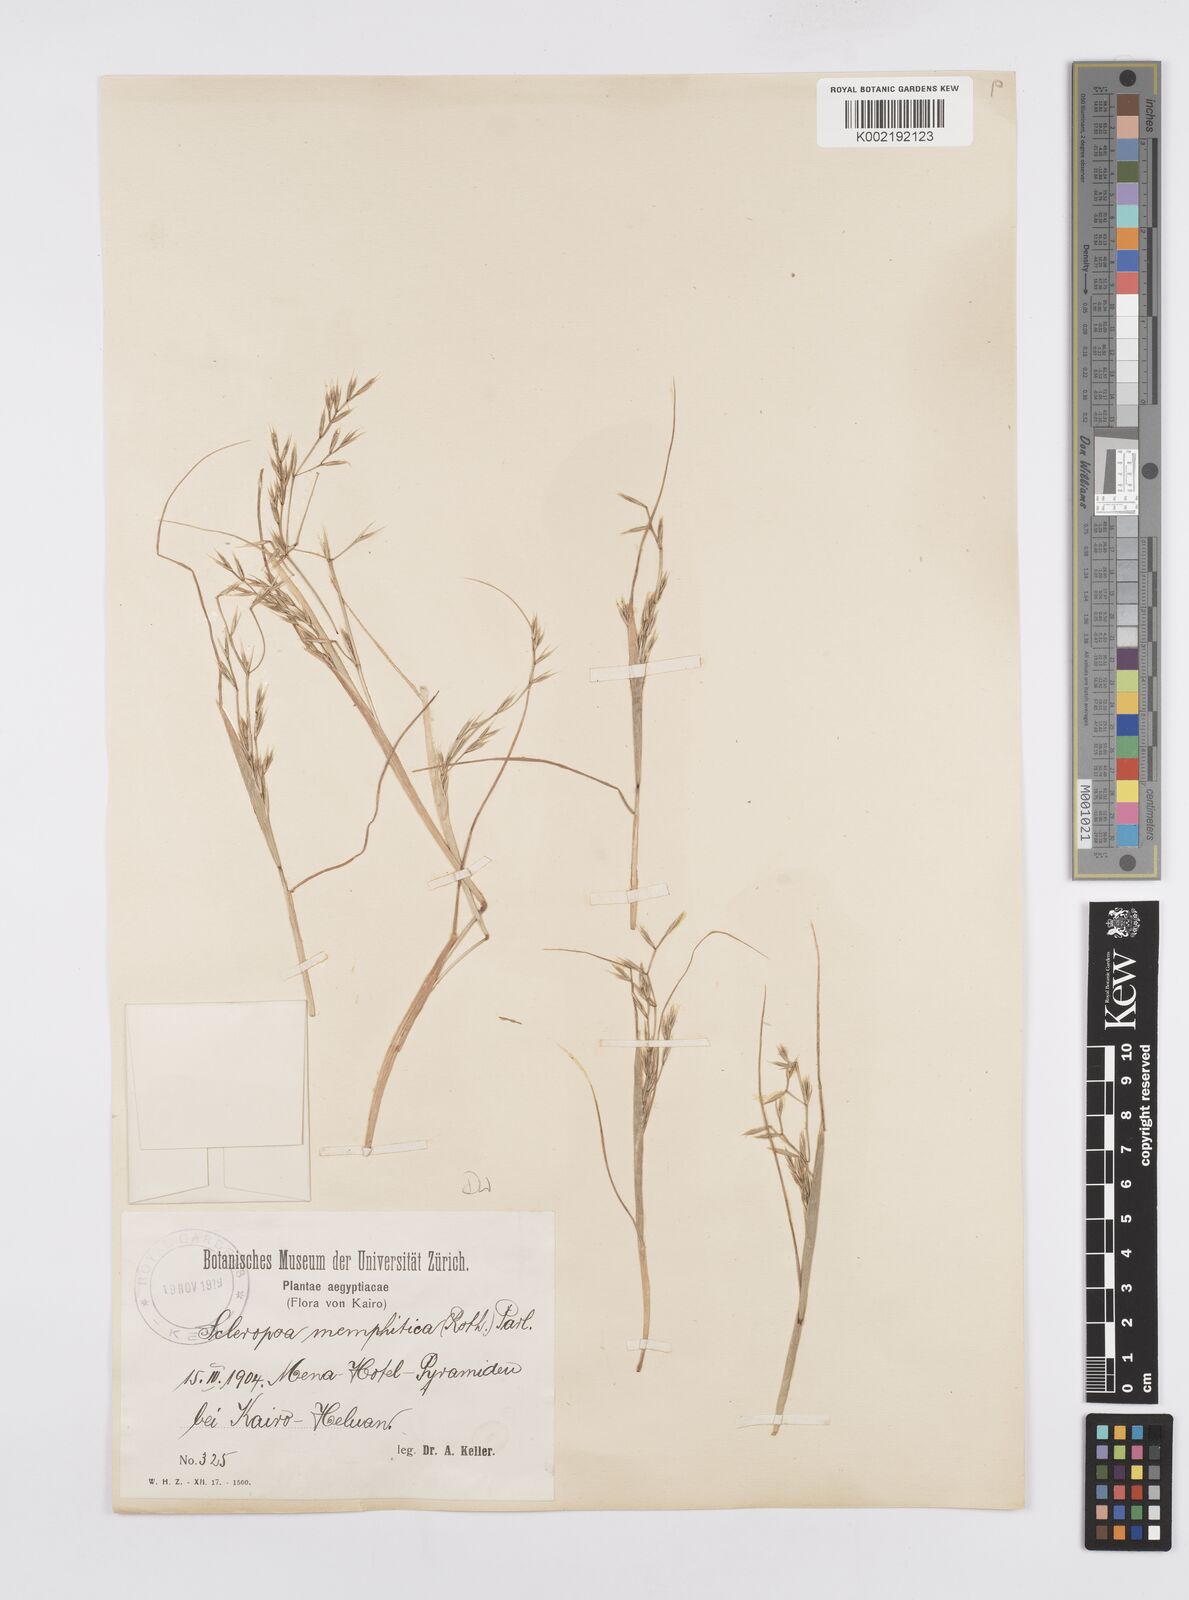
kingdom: Plantae
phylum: Tracheophyta
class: Liliopsida
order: Poales
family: Poaceae
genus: Cutandia
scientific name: Cutandia memphitica
